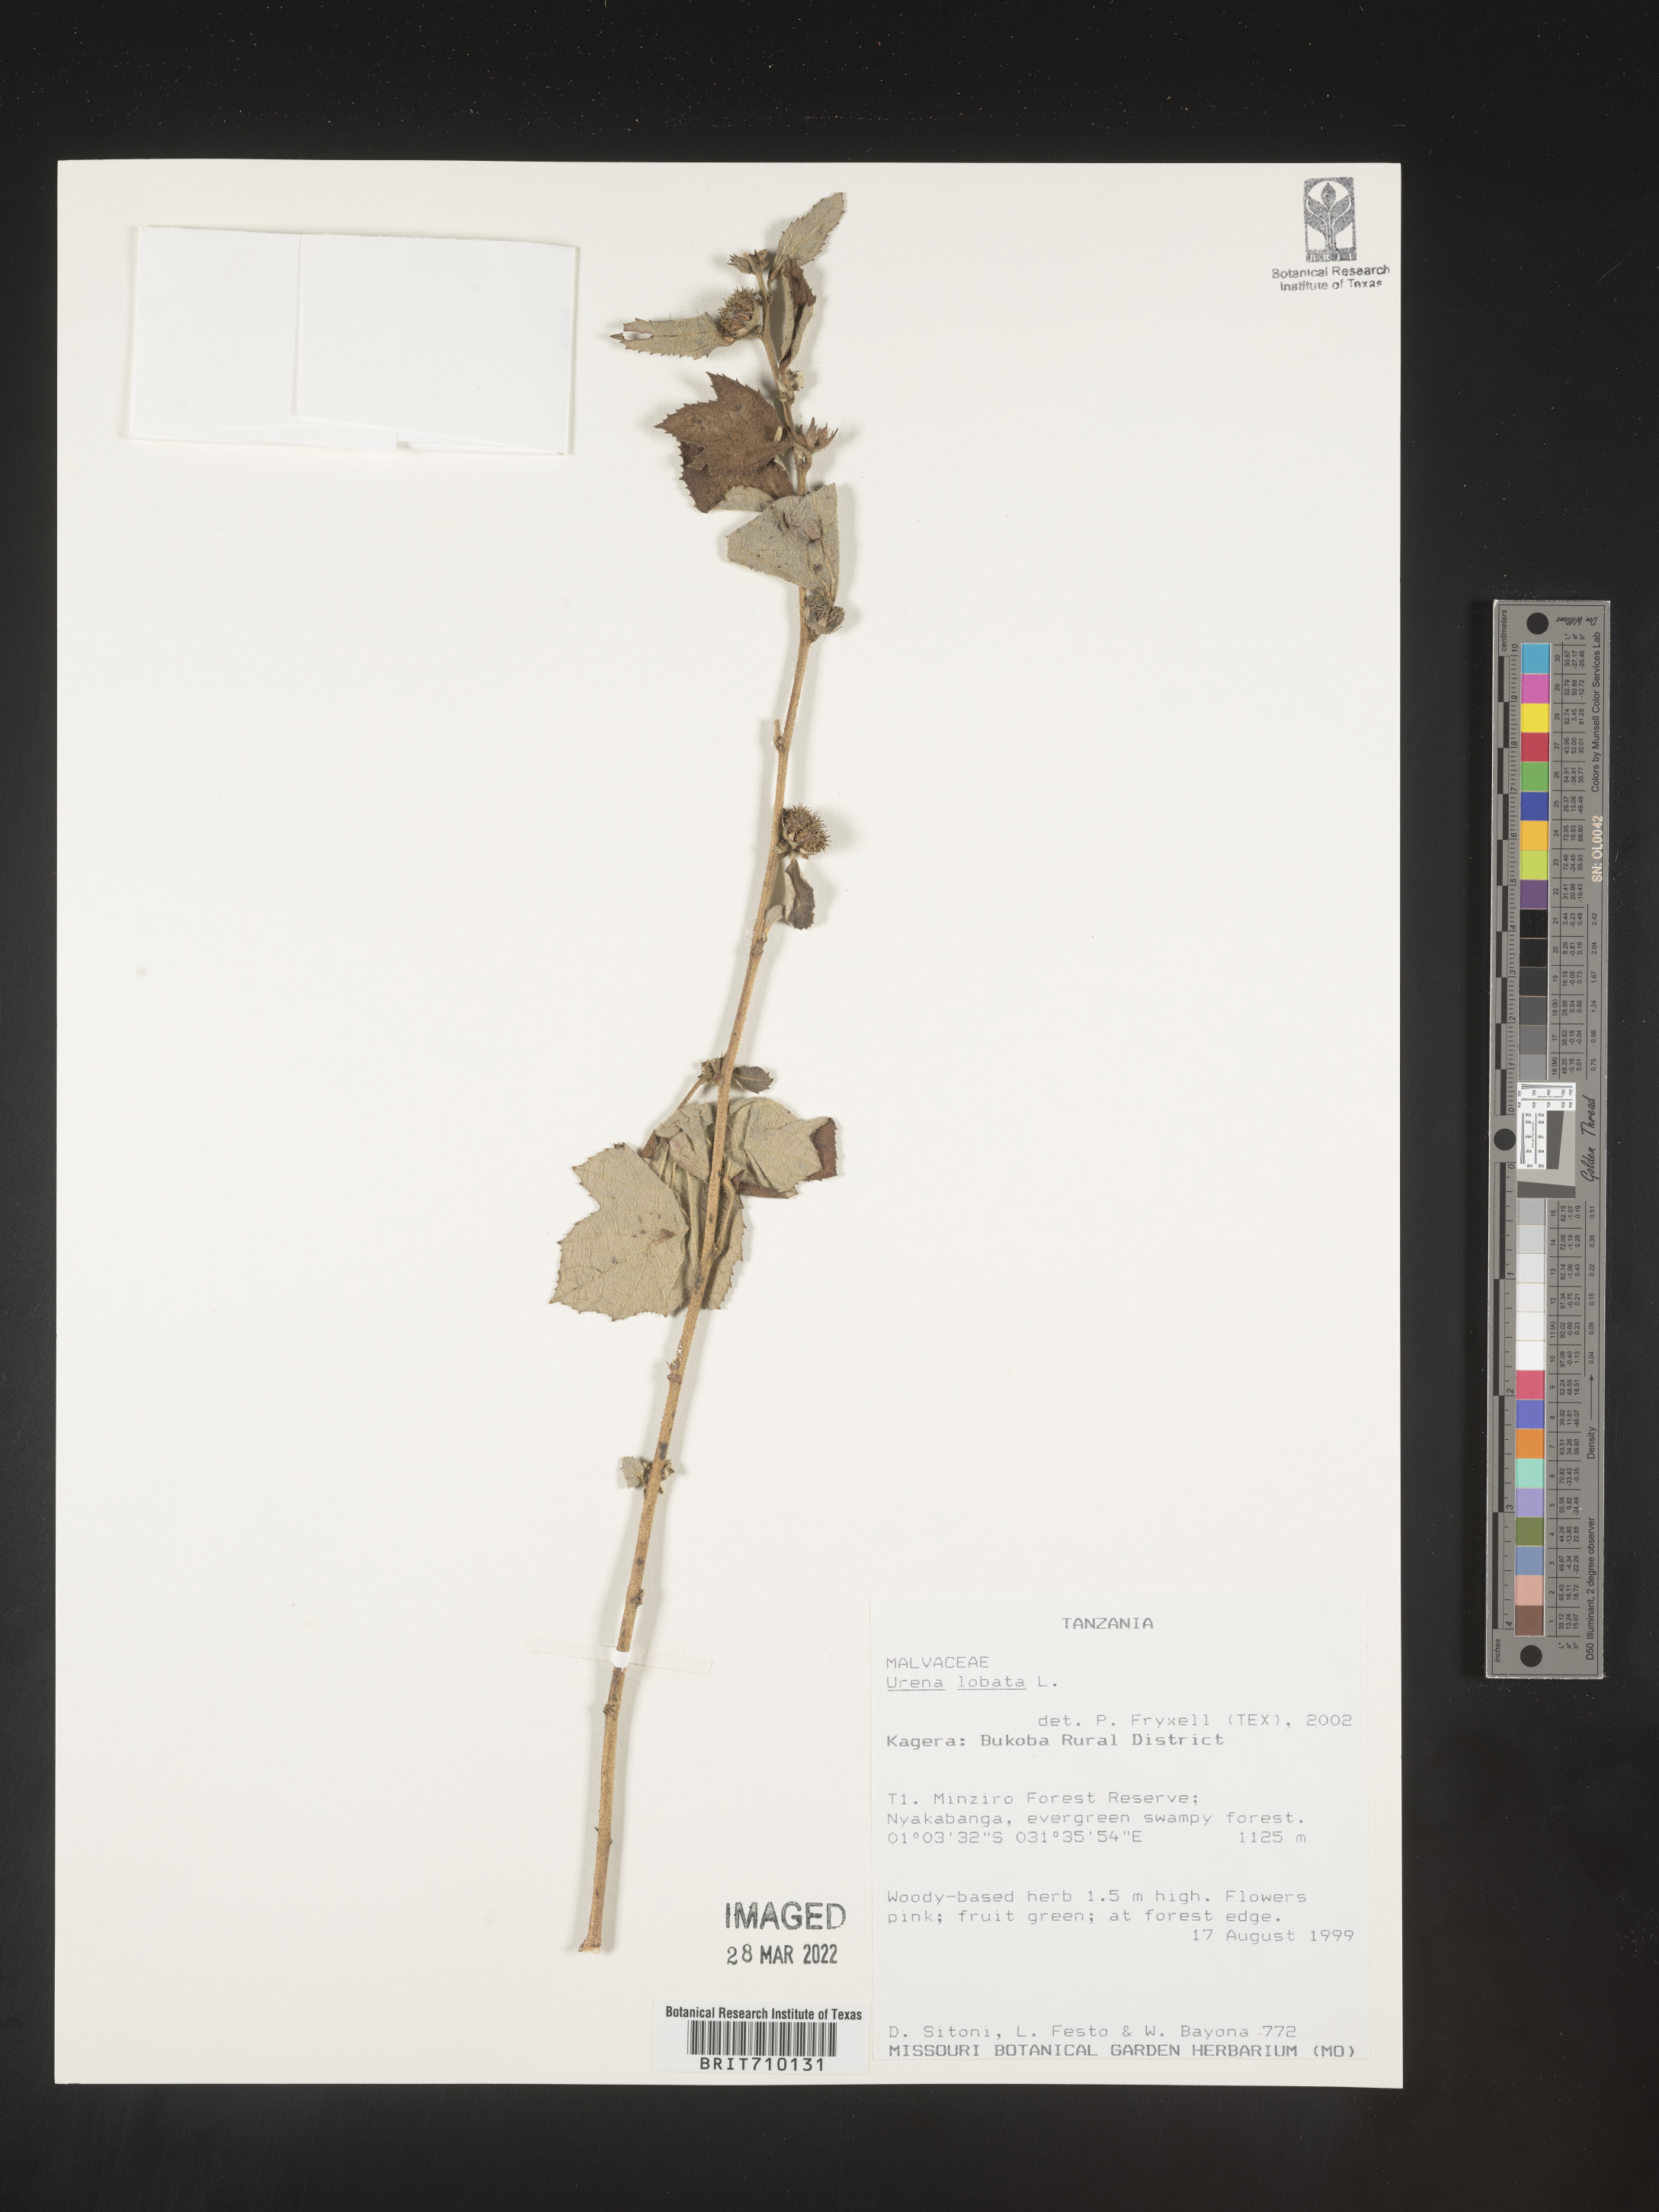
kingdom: Plantae
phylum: Tracheophyta
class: Magnoliopsida
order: Malvales
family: Malvaceae
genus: Urena
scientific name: Urena
